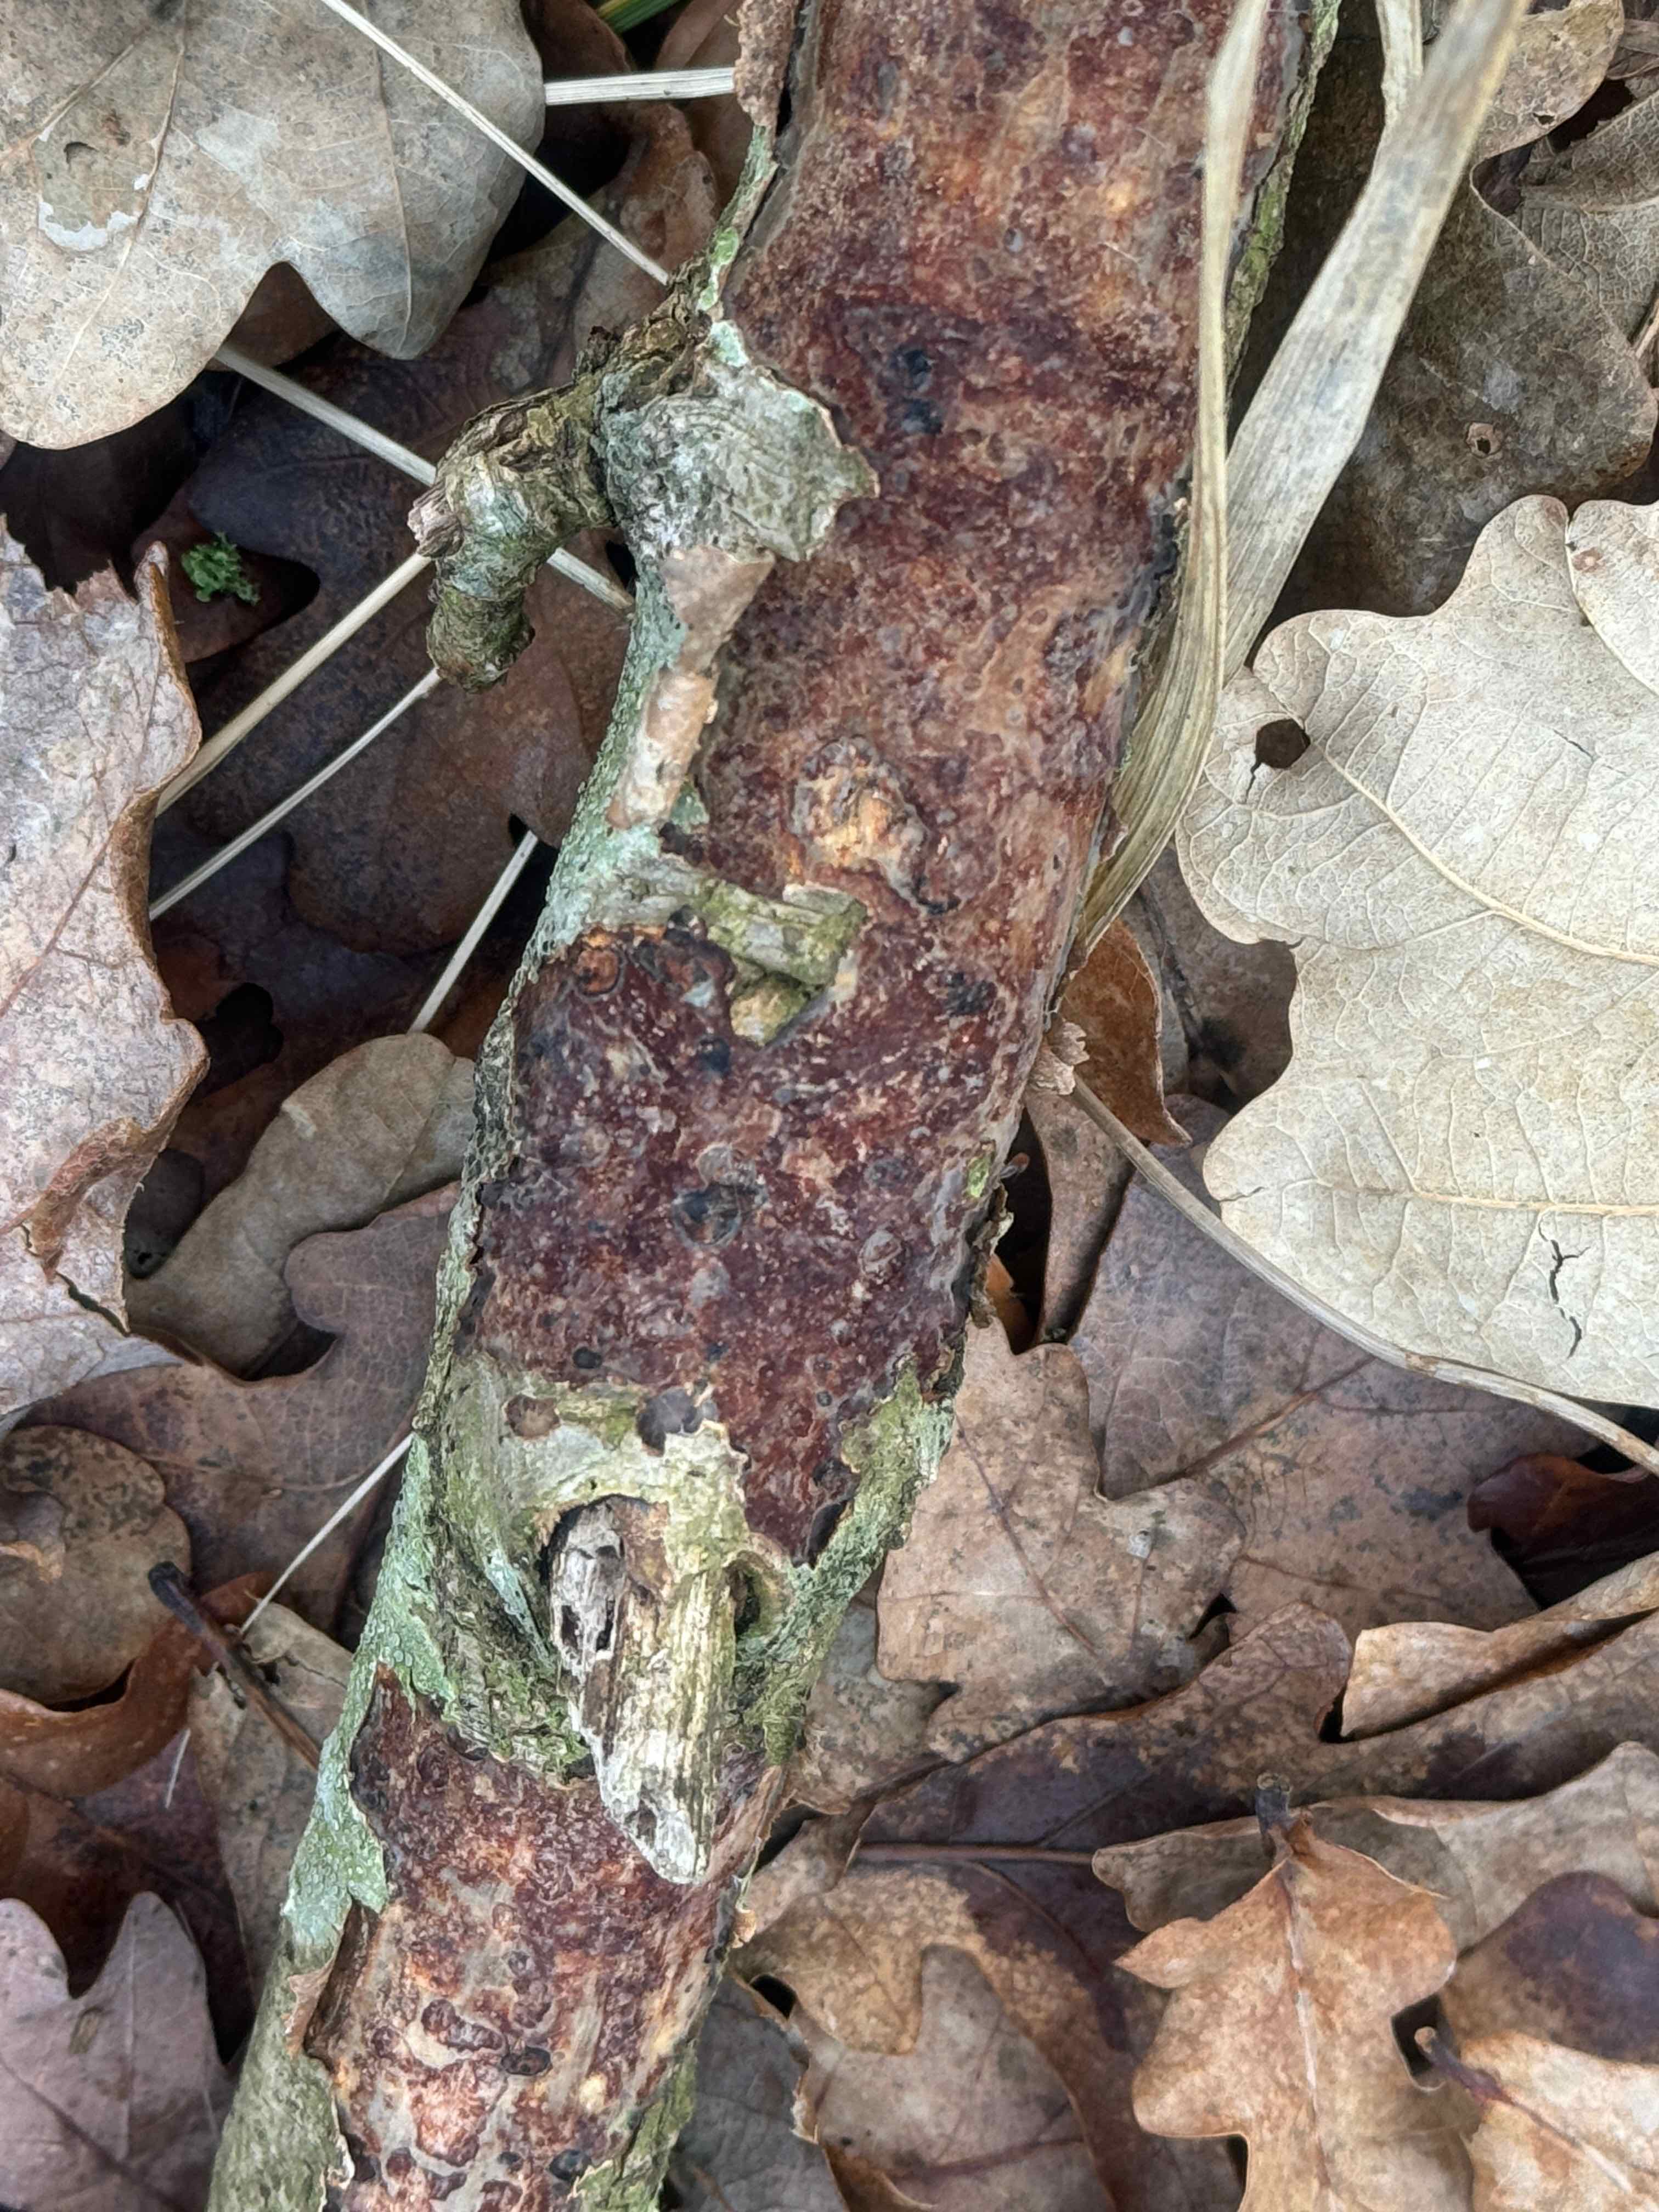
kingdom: Fungi
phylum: Basidiomycota
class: Agaricomycetes
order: Corticiales
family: Vuilleminiaceae
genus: Vuilleminia
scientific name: Vuilleminia comedens
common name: almindelig barksprænger
